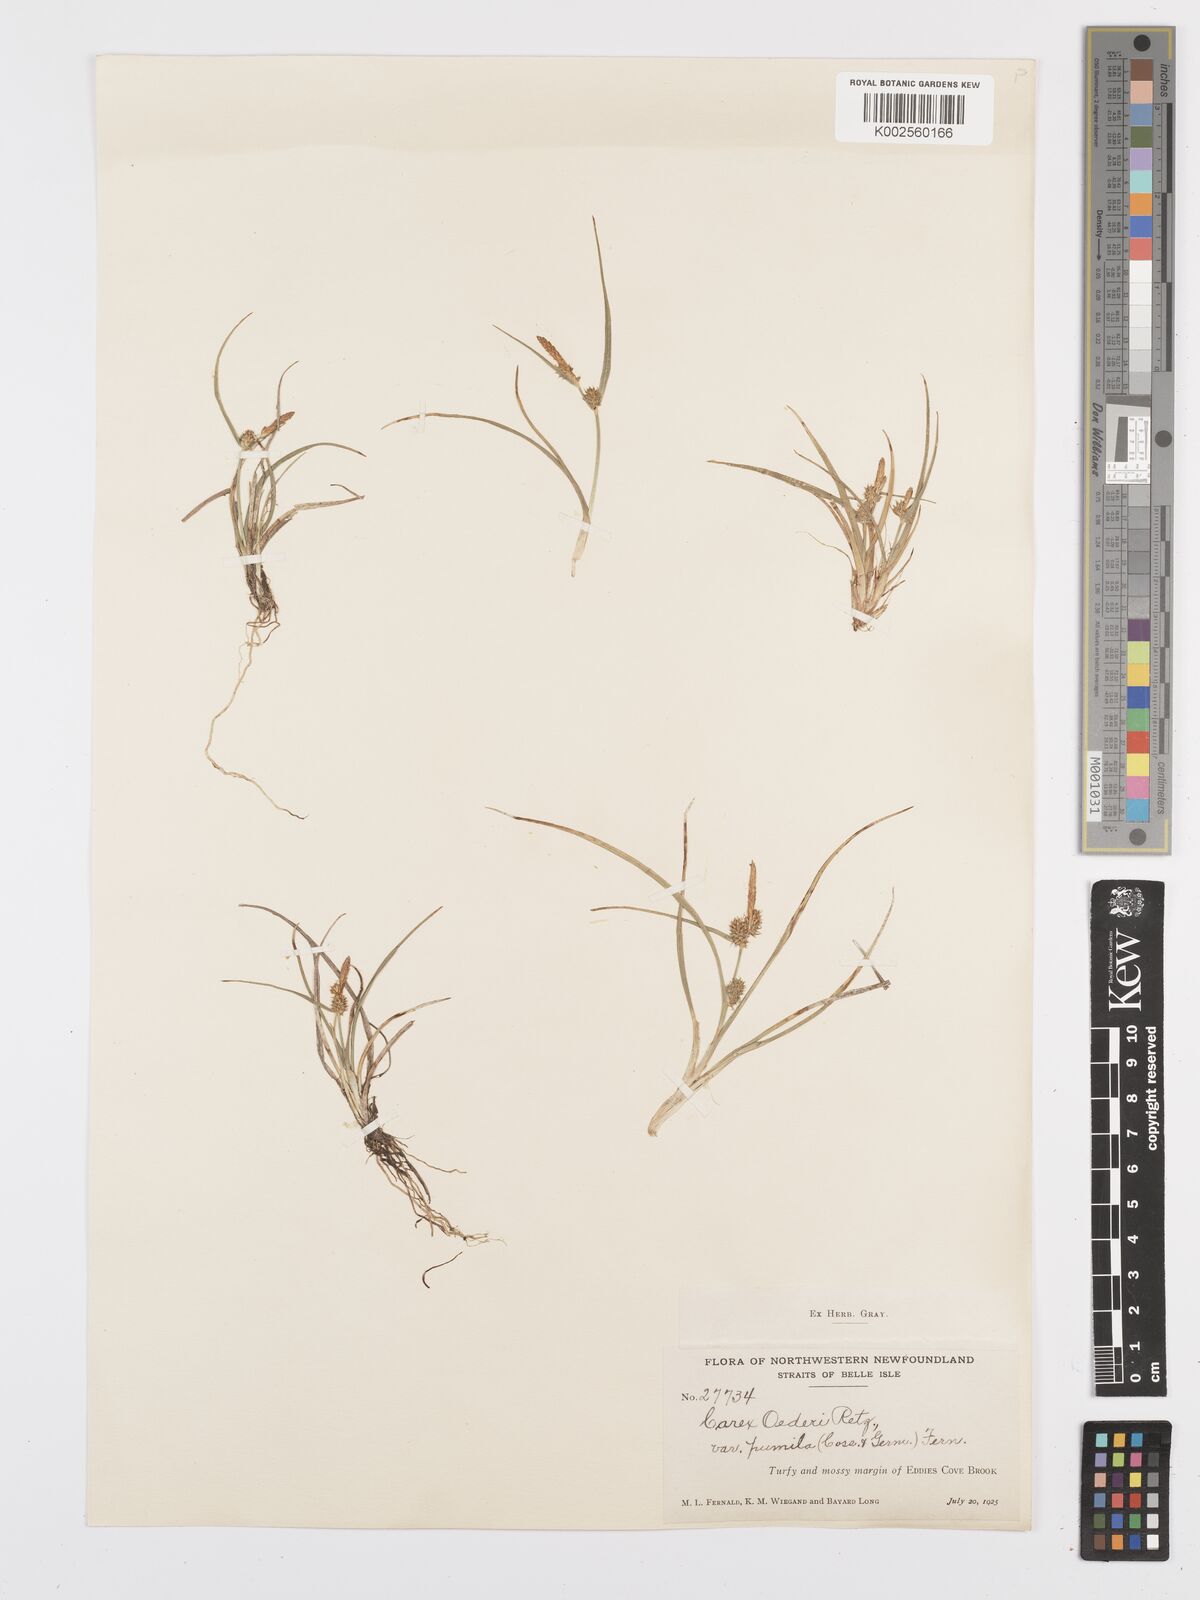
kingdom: Plantae
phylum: Tracheophyta
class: Liliopsida
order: Poales
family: Cyperaceae
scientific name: Cyperaceae
